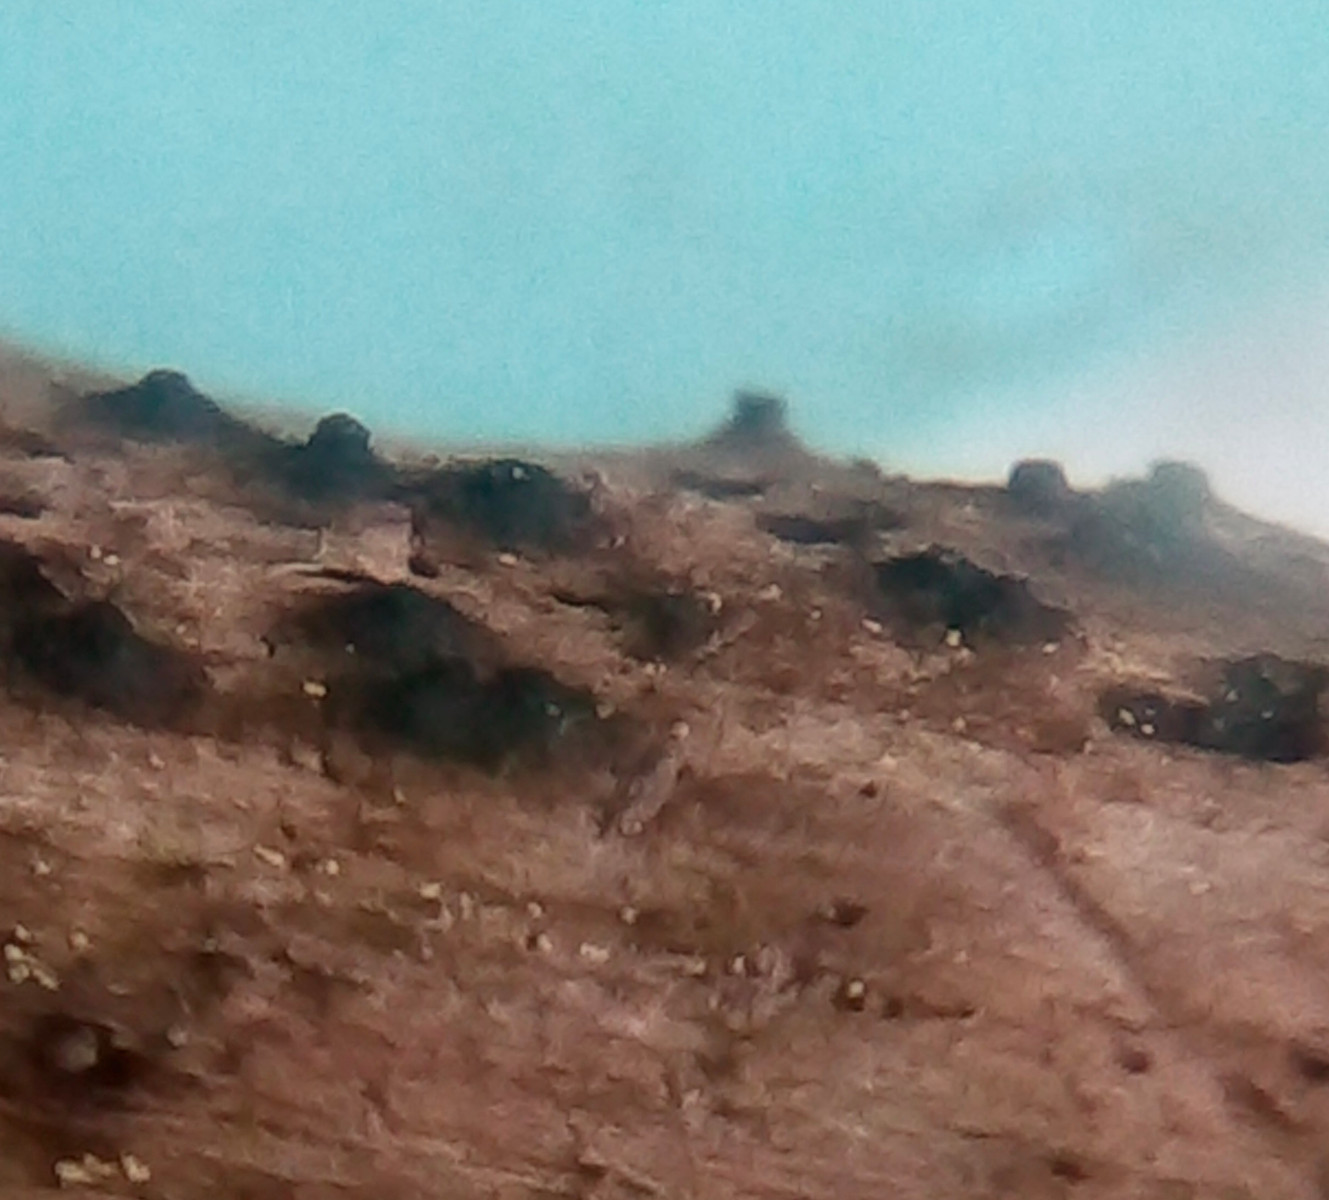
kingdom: Fungi
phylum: Ascomycota
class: Dothideomycetes
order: Pleosporales
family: Thyridariaceae
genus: Thyridaria
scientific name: Thyridaria macrostomoides
